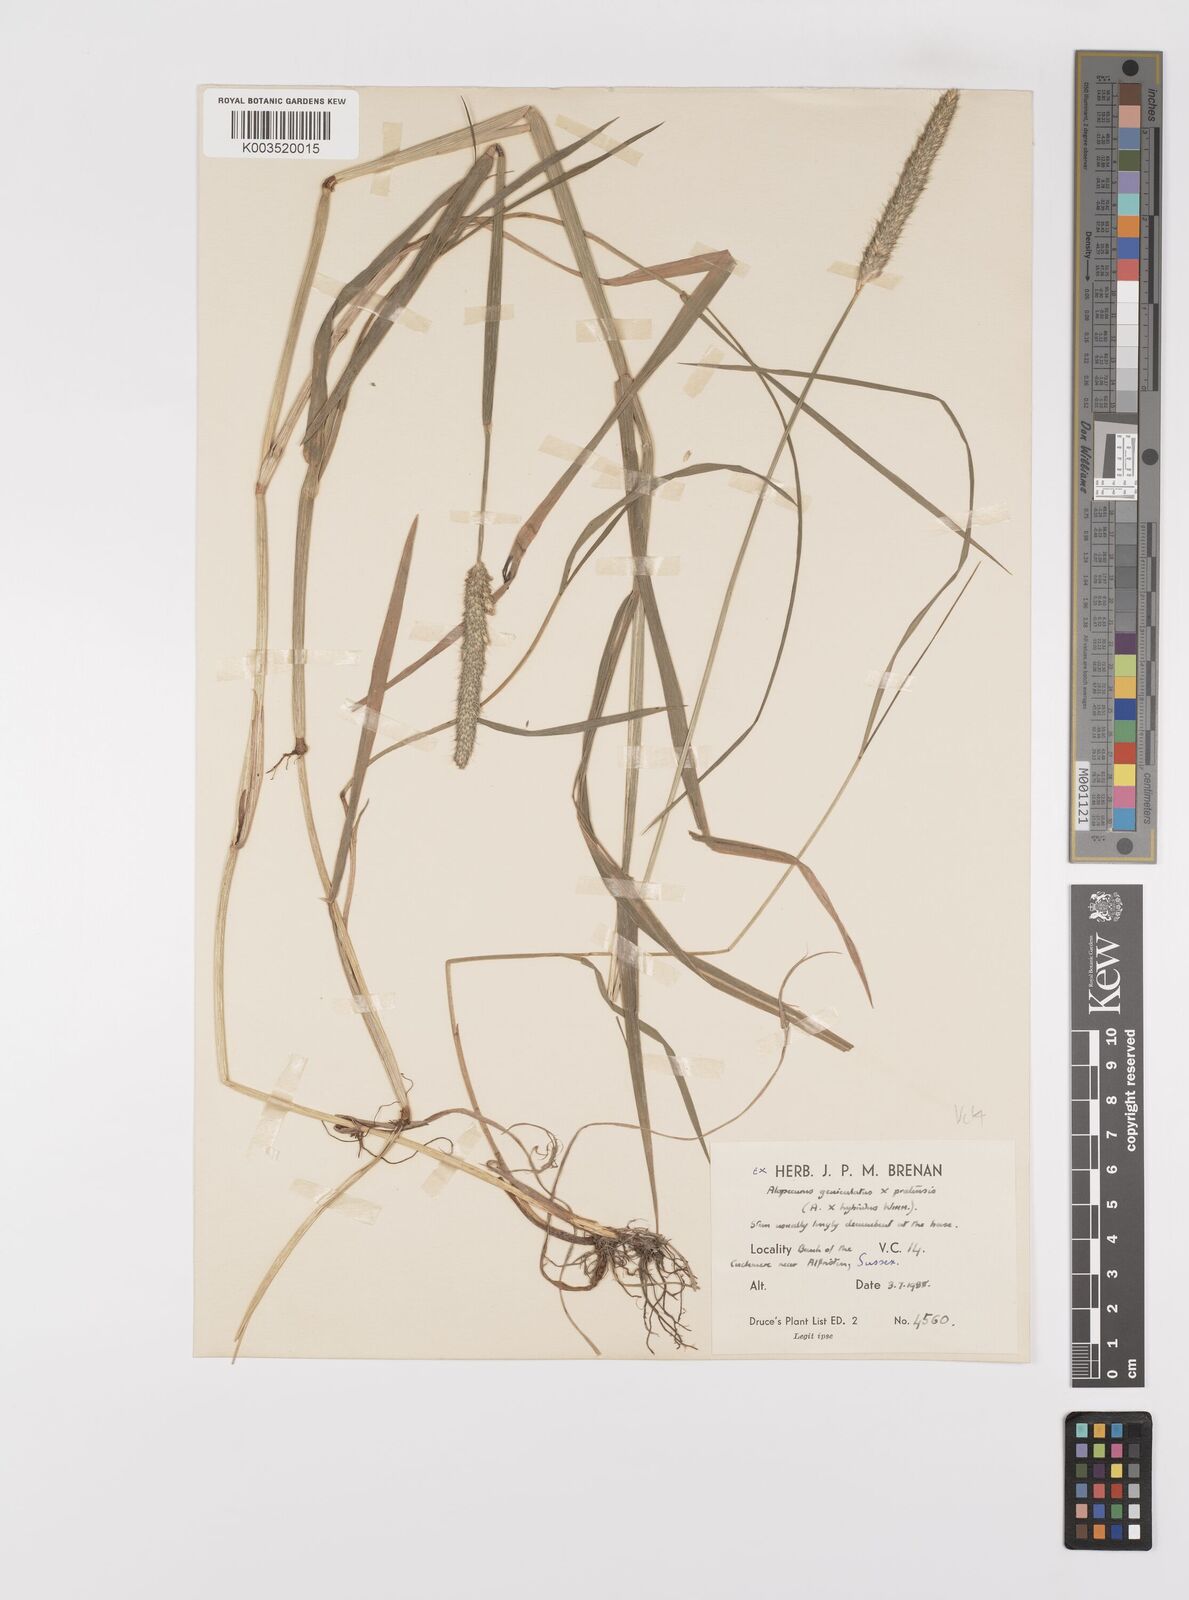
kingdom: Plantae
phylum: Tracheophyta
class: Liliopsida
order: Poales
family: Poaceae
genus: Alopecurus
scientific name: Alopecurus brachystylus
